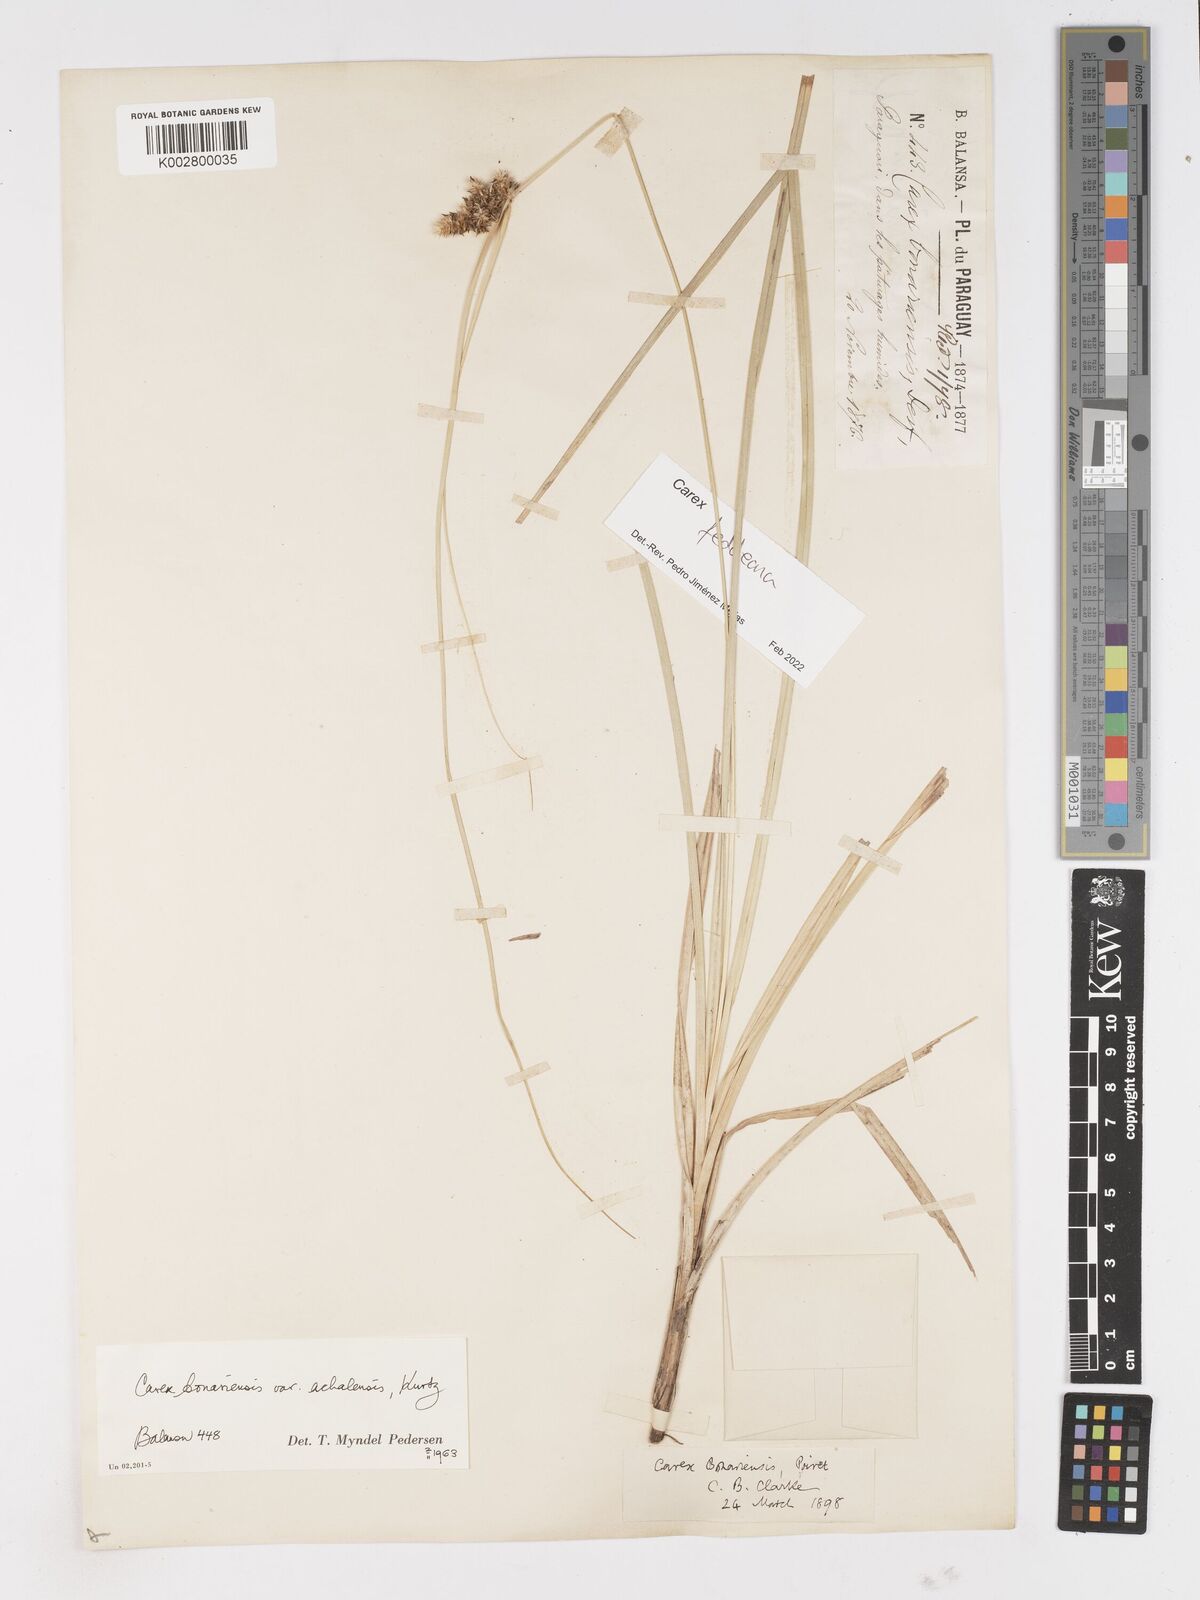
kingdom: Plantae
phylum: Tracheophyta
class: Liliopsida
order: Poales
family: Cyperaceae
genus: Carex
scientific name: Carex bonariensis
